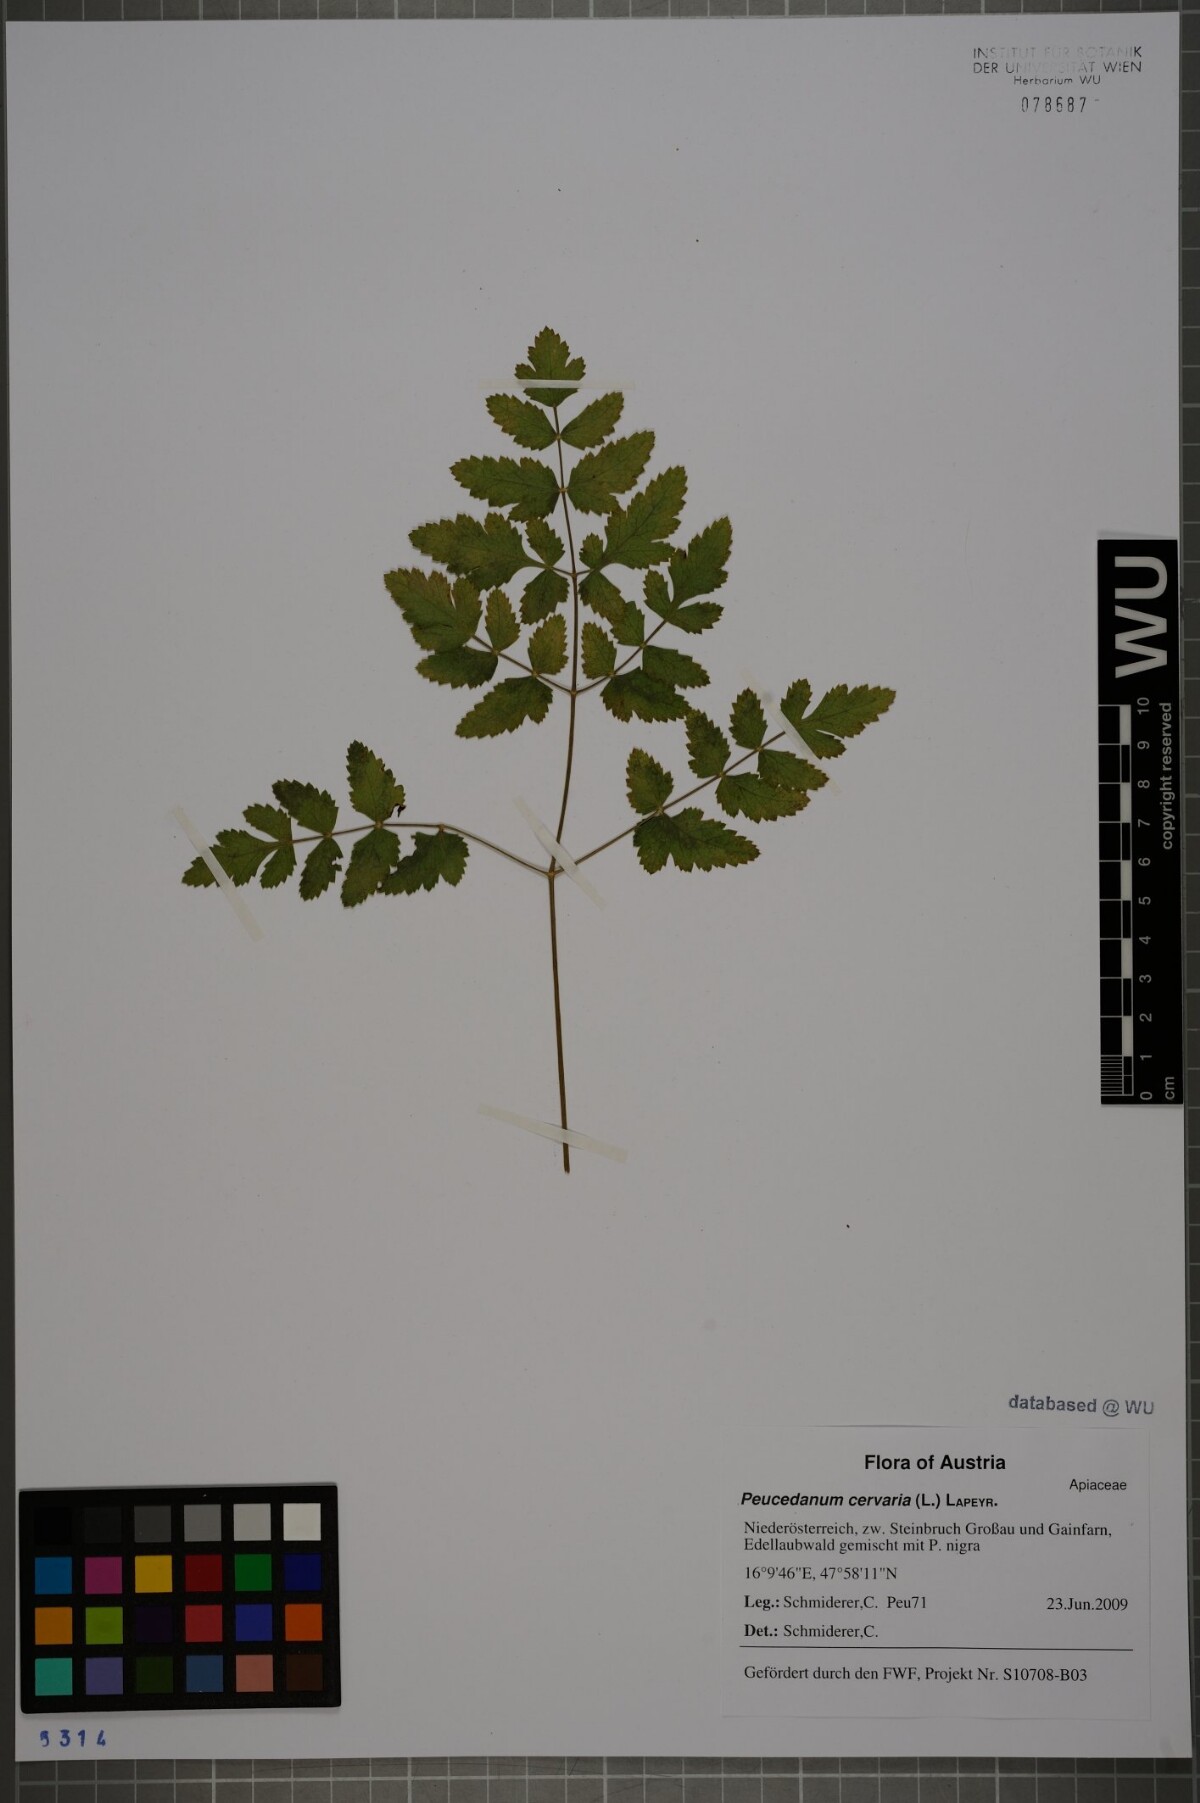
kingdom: Plantae
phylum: Tracheophyta
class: Magnoliopsida
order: Apiales
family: Apiaceae
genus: Cervaria
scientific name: Cervaria rivini
